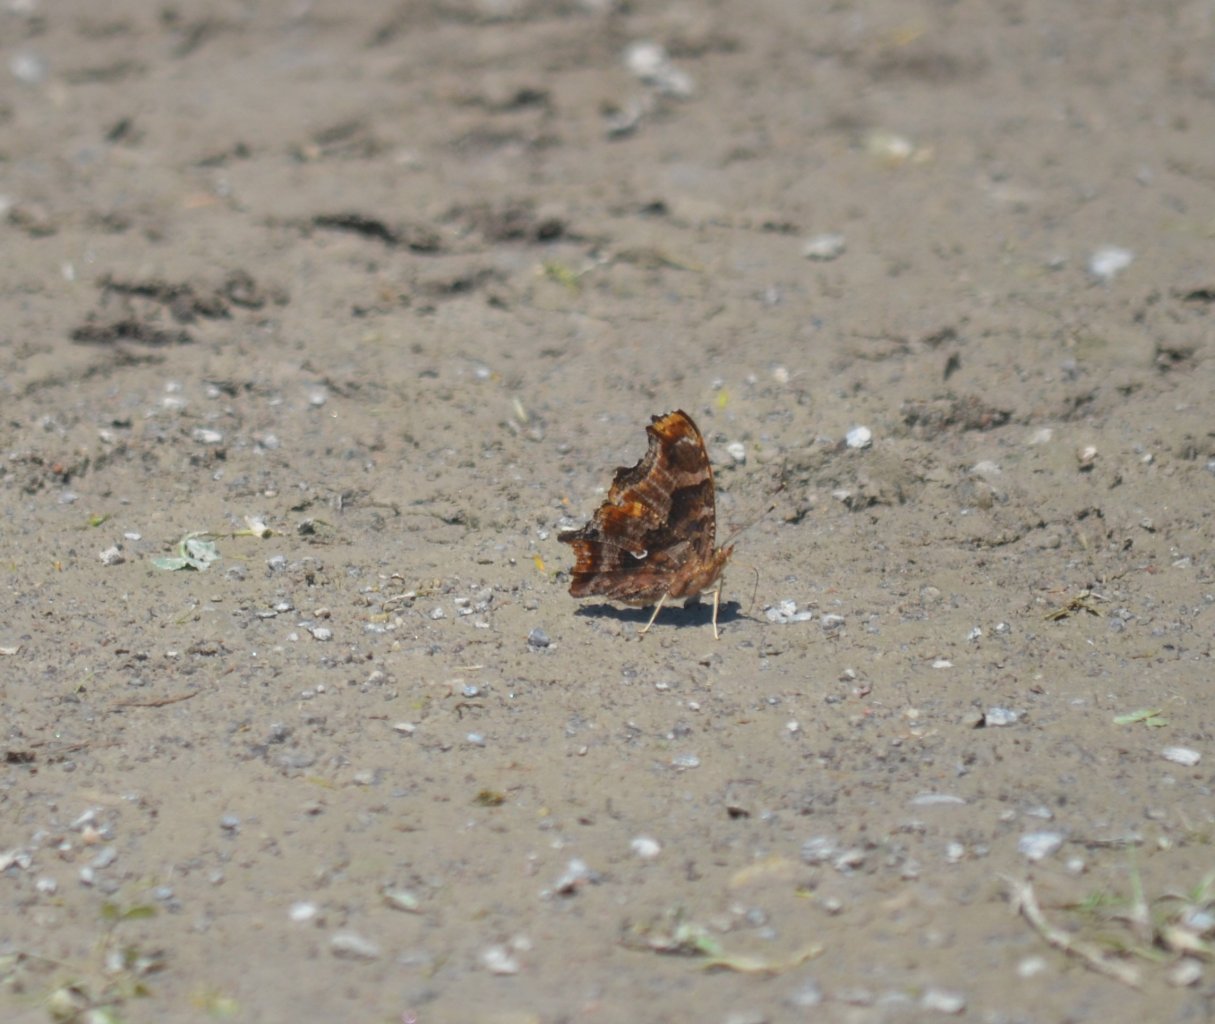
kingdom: Animalia
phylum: Arthropoda
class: Insecta
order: Lepidoptera
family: Nymphalidae
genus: Polygonia
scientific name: Polygonia comma
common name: Eastern Comma
